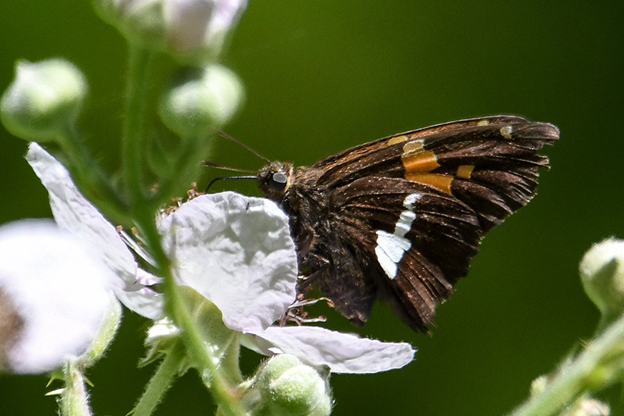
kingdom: Animalia
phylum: Arthropoda
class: Insecta
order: Lepidoptera
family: Hesperiidae
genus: Epargyreus
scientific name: Epargyreus clarus
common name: Silver-spotted Skipper
